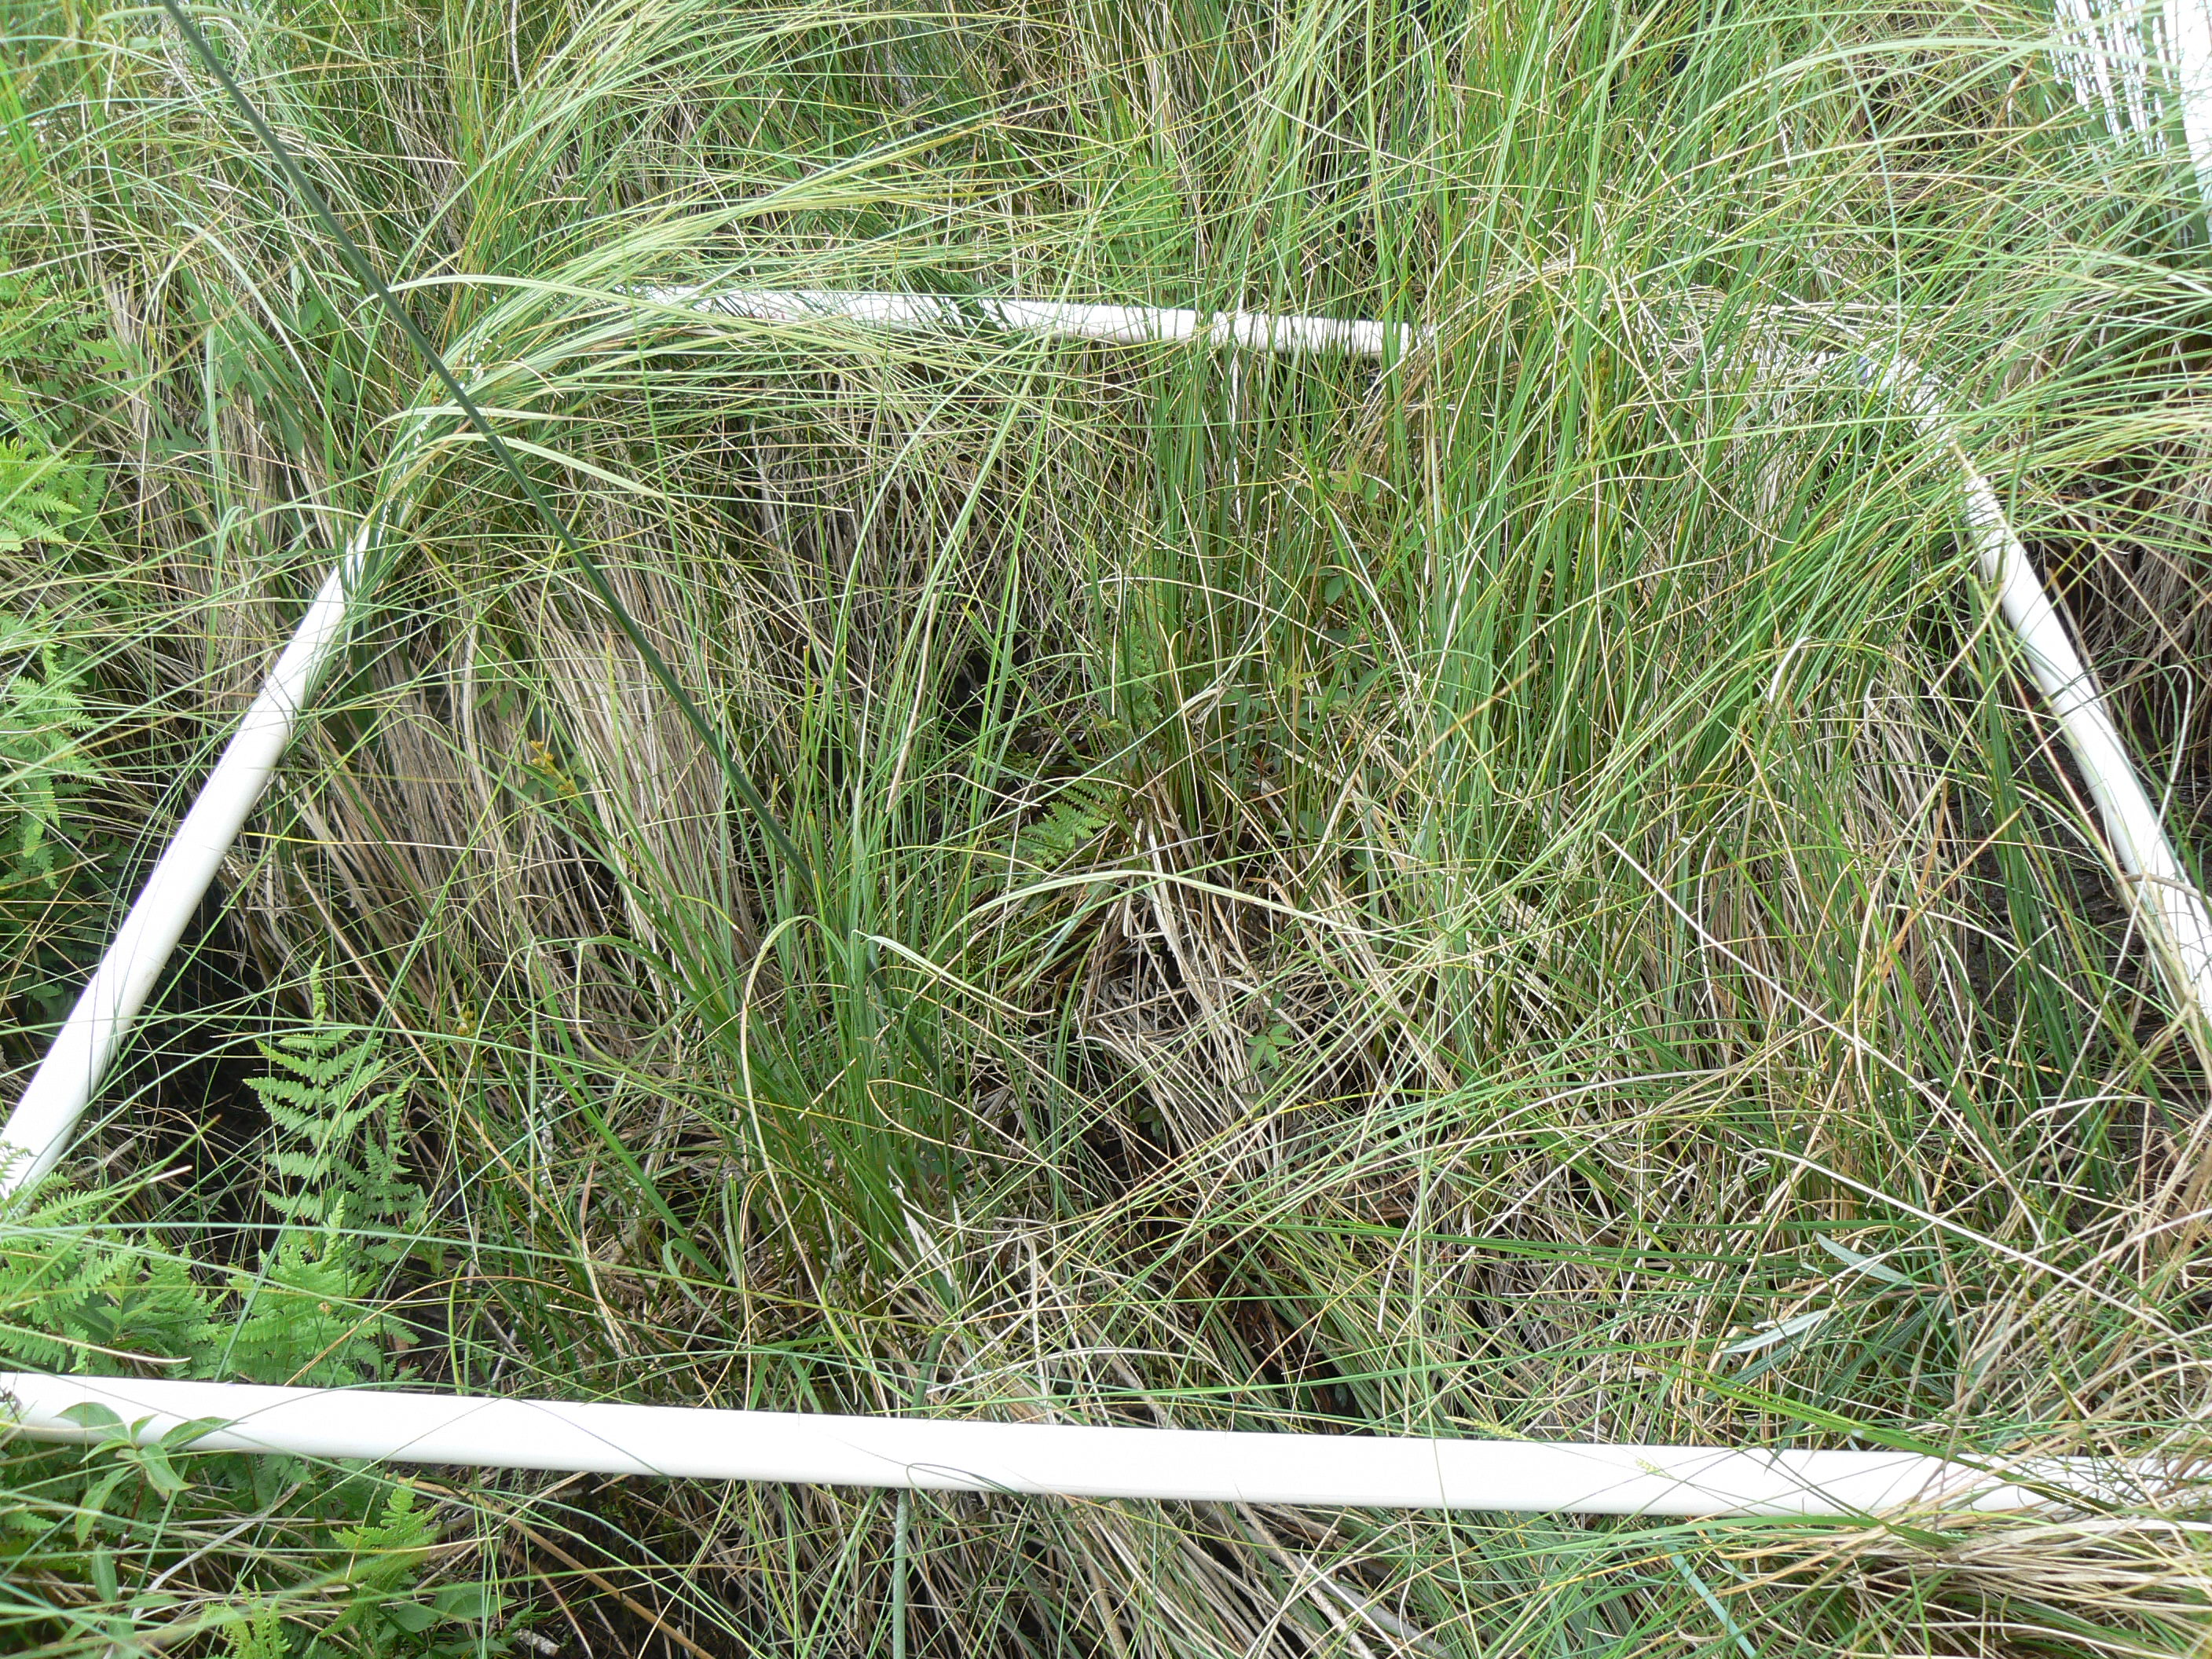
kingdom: Plantae
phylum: Tracheophyta
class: Liliopsida
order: Poales
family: Cyperaceae
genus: Carex
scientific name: Carex stricta
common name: Hummock sedge
